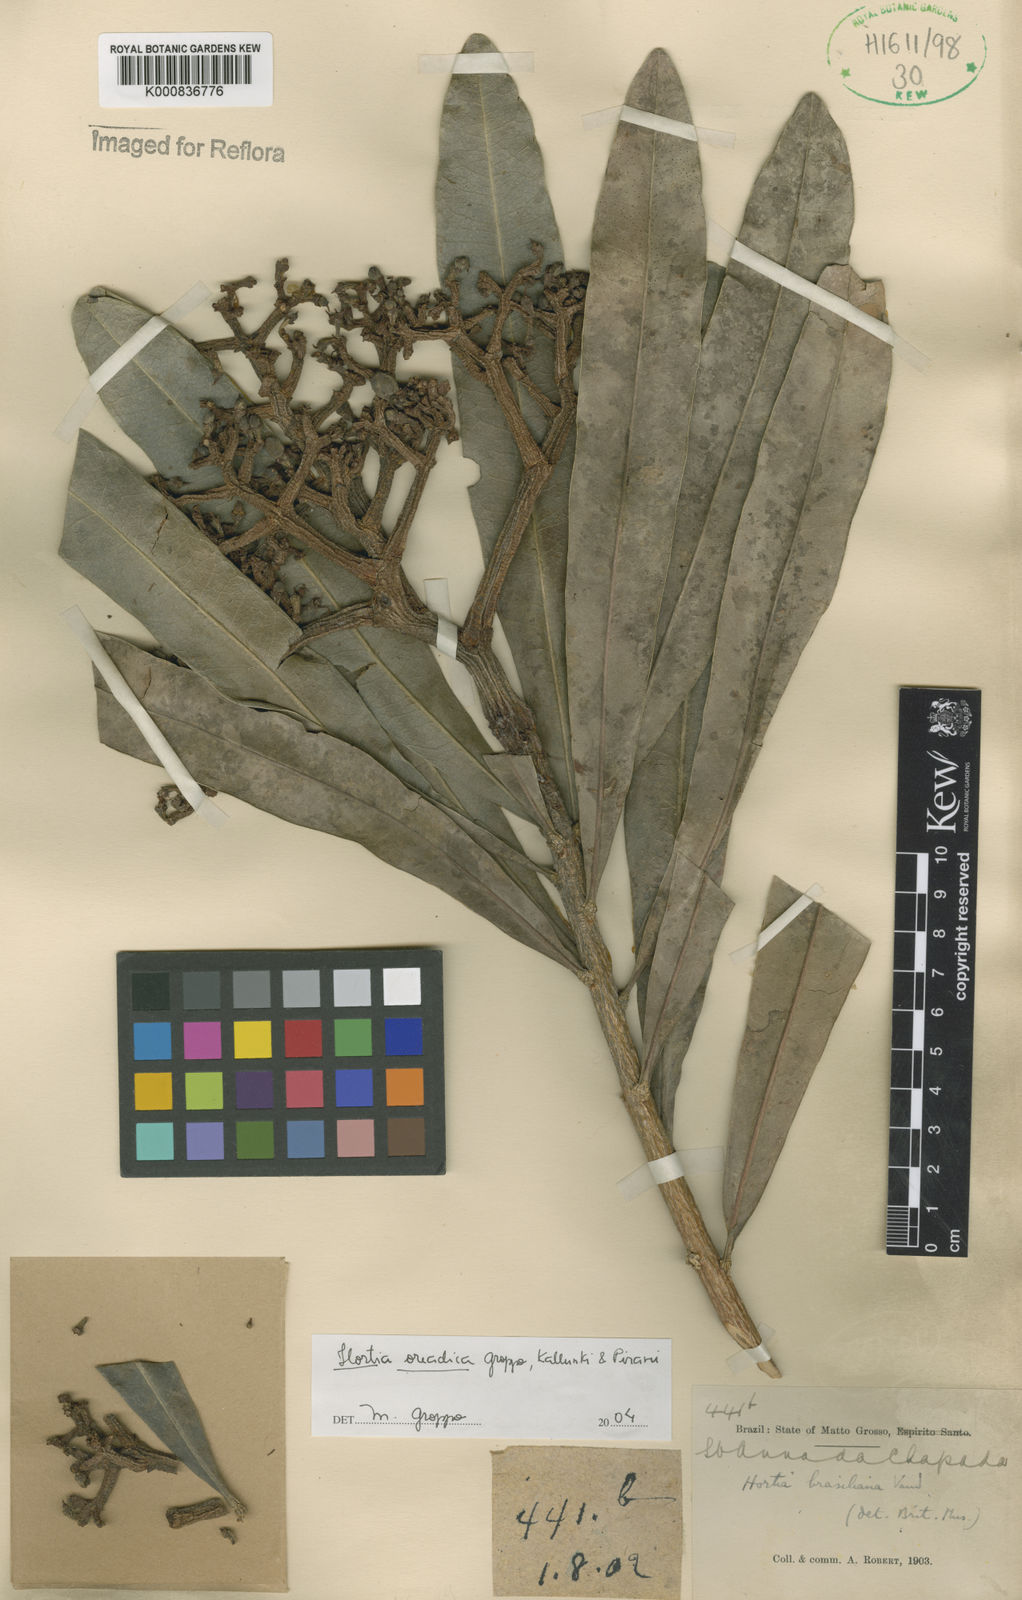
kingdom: Plantae
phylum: Tracheophyta
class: Magnoliopsida
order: Sapindales
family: Rutaceae
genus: Hortia
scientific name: Hortia brasiliana
